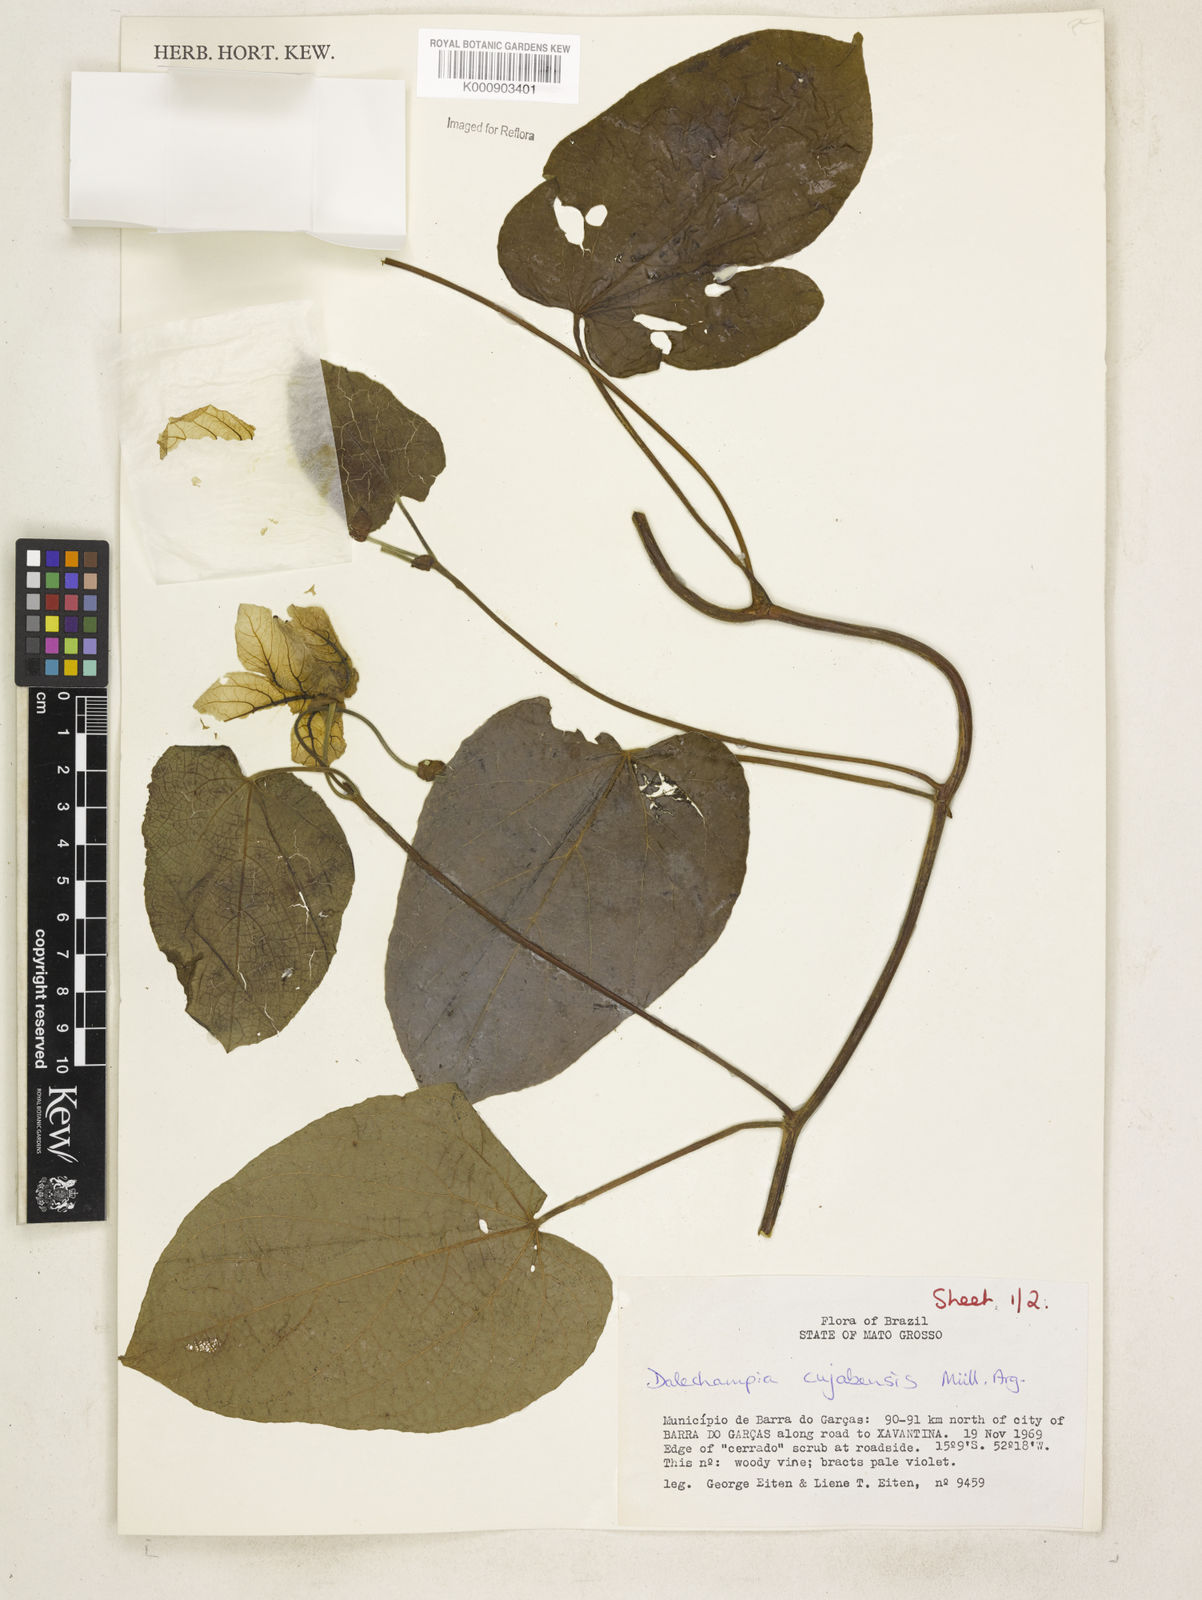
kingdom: Plantae
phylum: Tracheophyta
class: Magnoliopsida
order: Malpighiales
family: Euphorbiaceae
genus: Dalechampia
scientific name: Dalechampia
